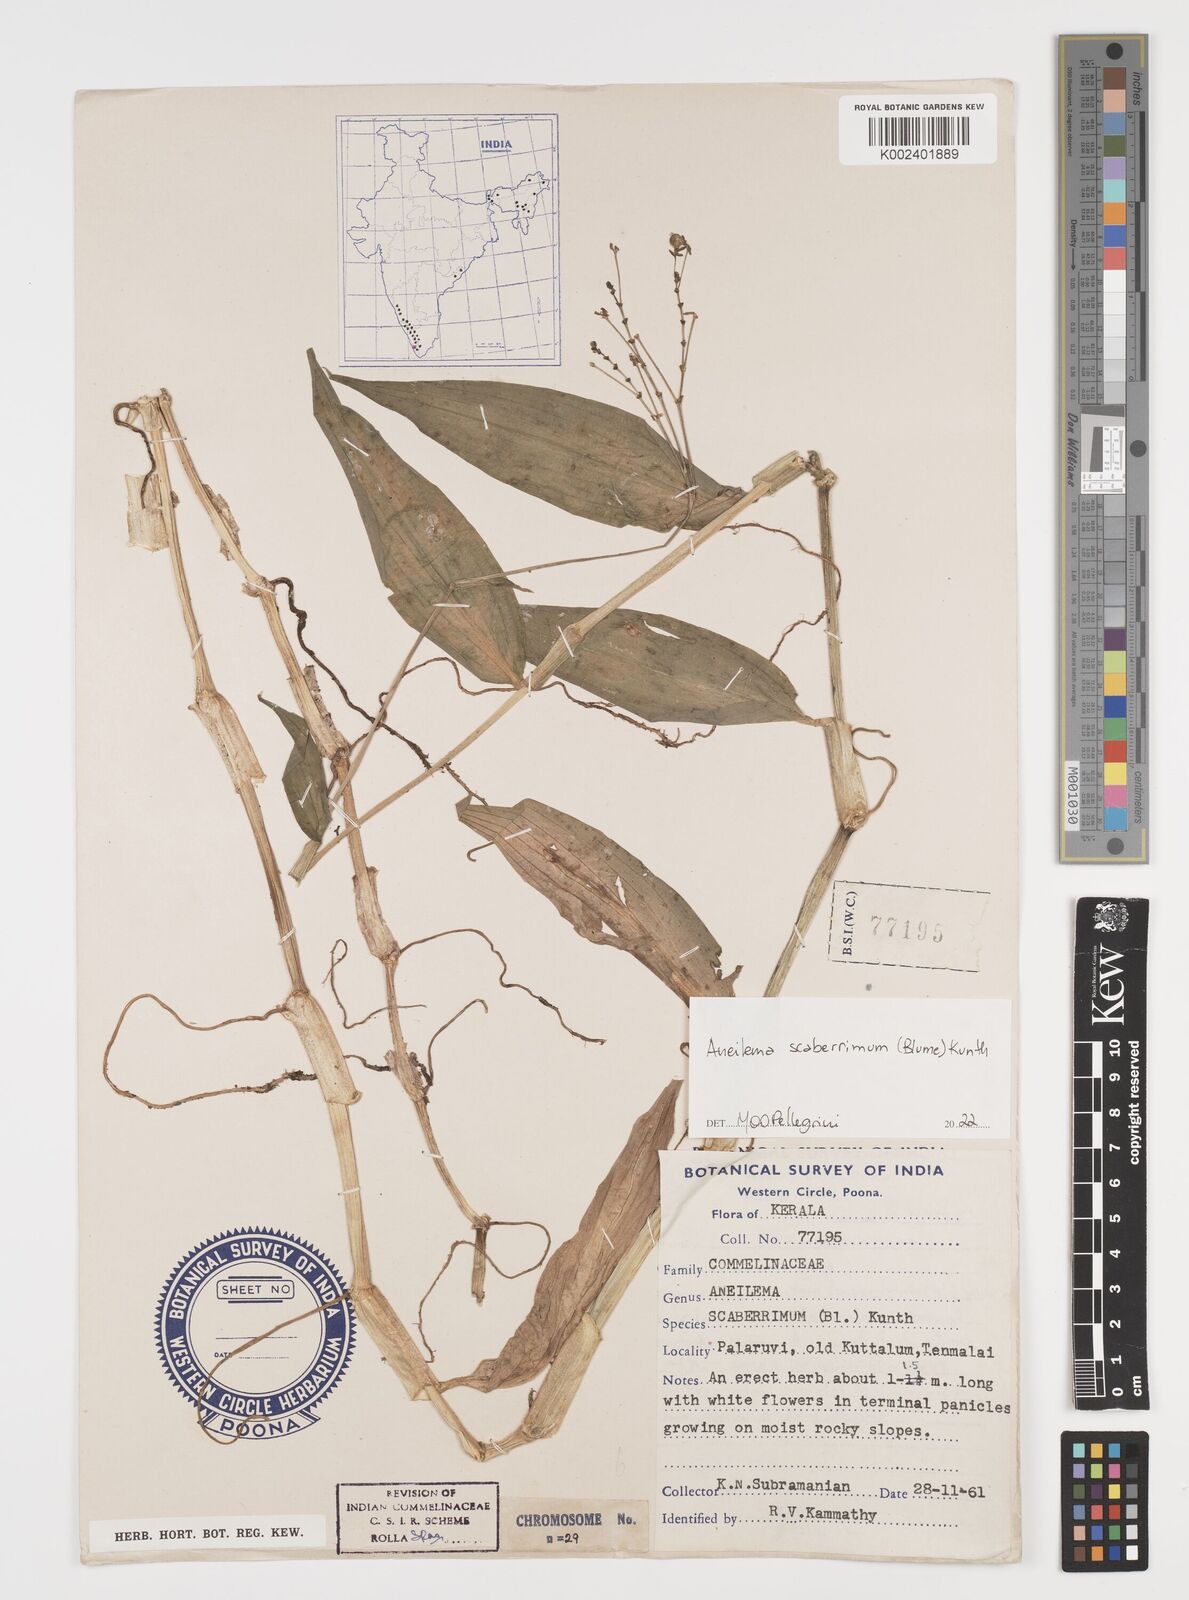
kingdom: Plantae
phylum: Tracheophyta
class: Liliopsida
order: Commelinales
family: Commelinaceae
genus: Rhopalephora
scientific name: Rhopalephora scaberrima
